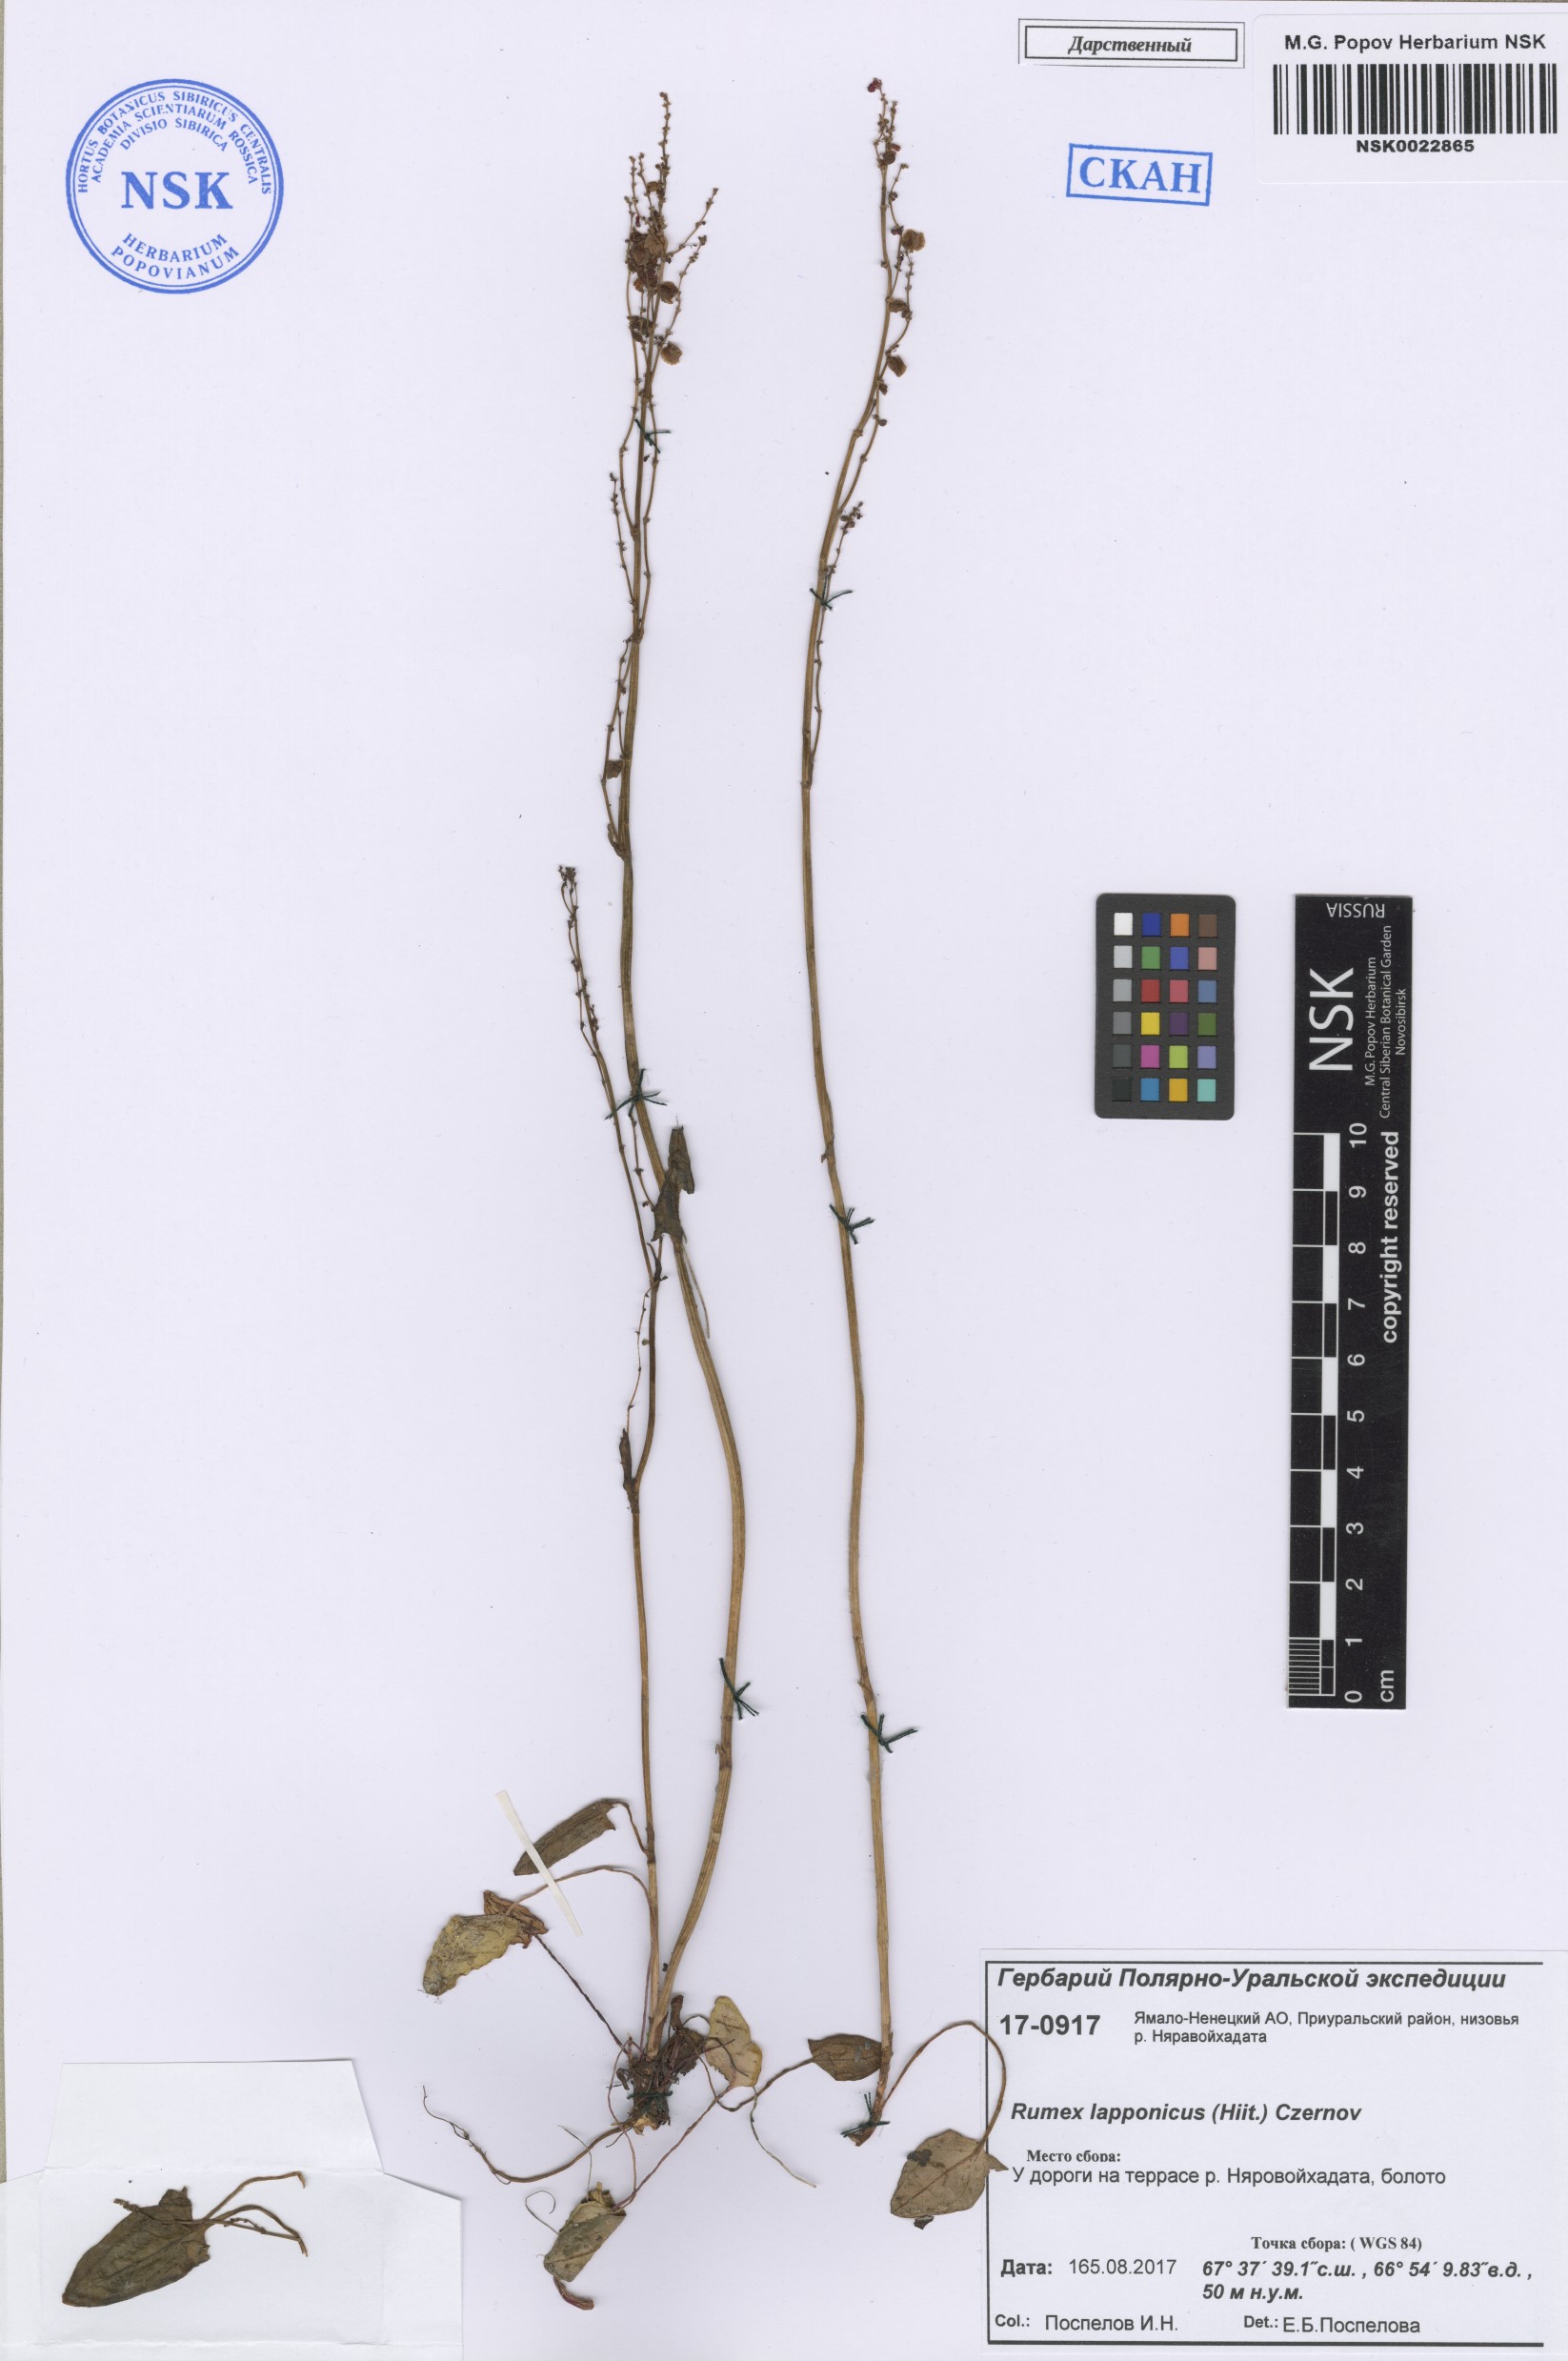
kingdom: Plantae
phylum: Tracheophyta
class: Magnoliopsida
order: Caryophyllales
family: Polygonaceae
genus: Rumex
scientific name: Rumex lapponicus
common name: Lapland mountain sorrel
